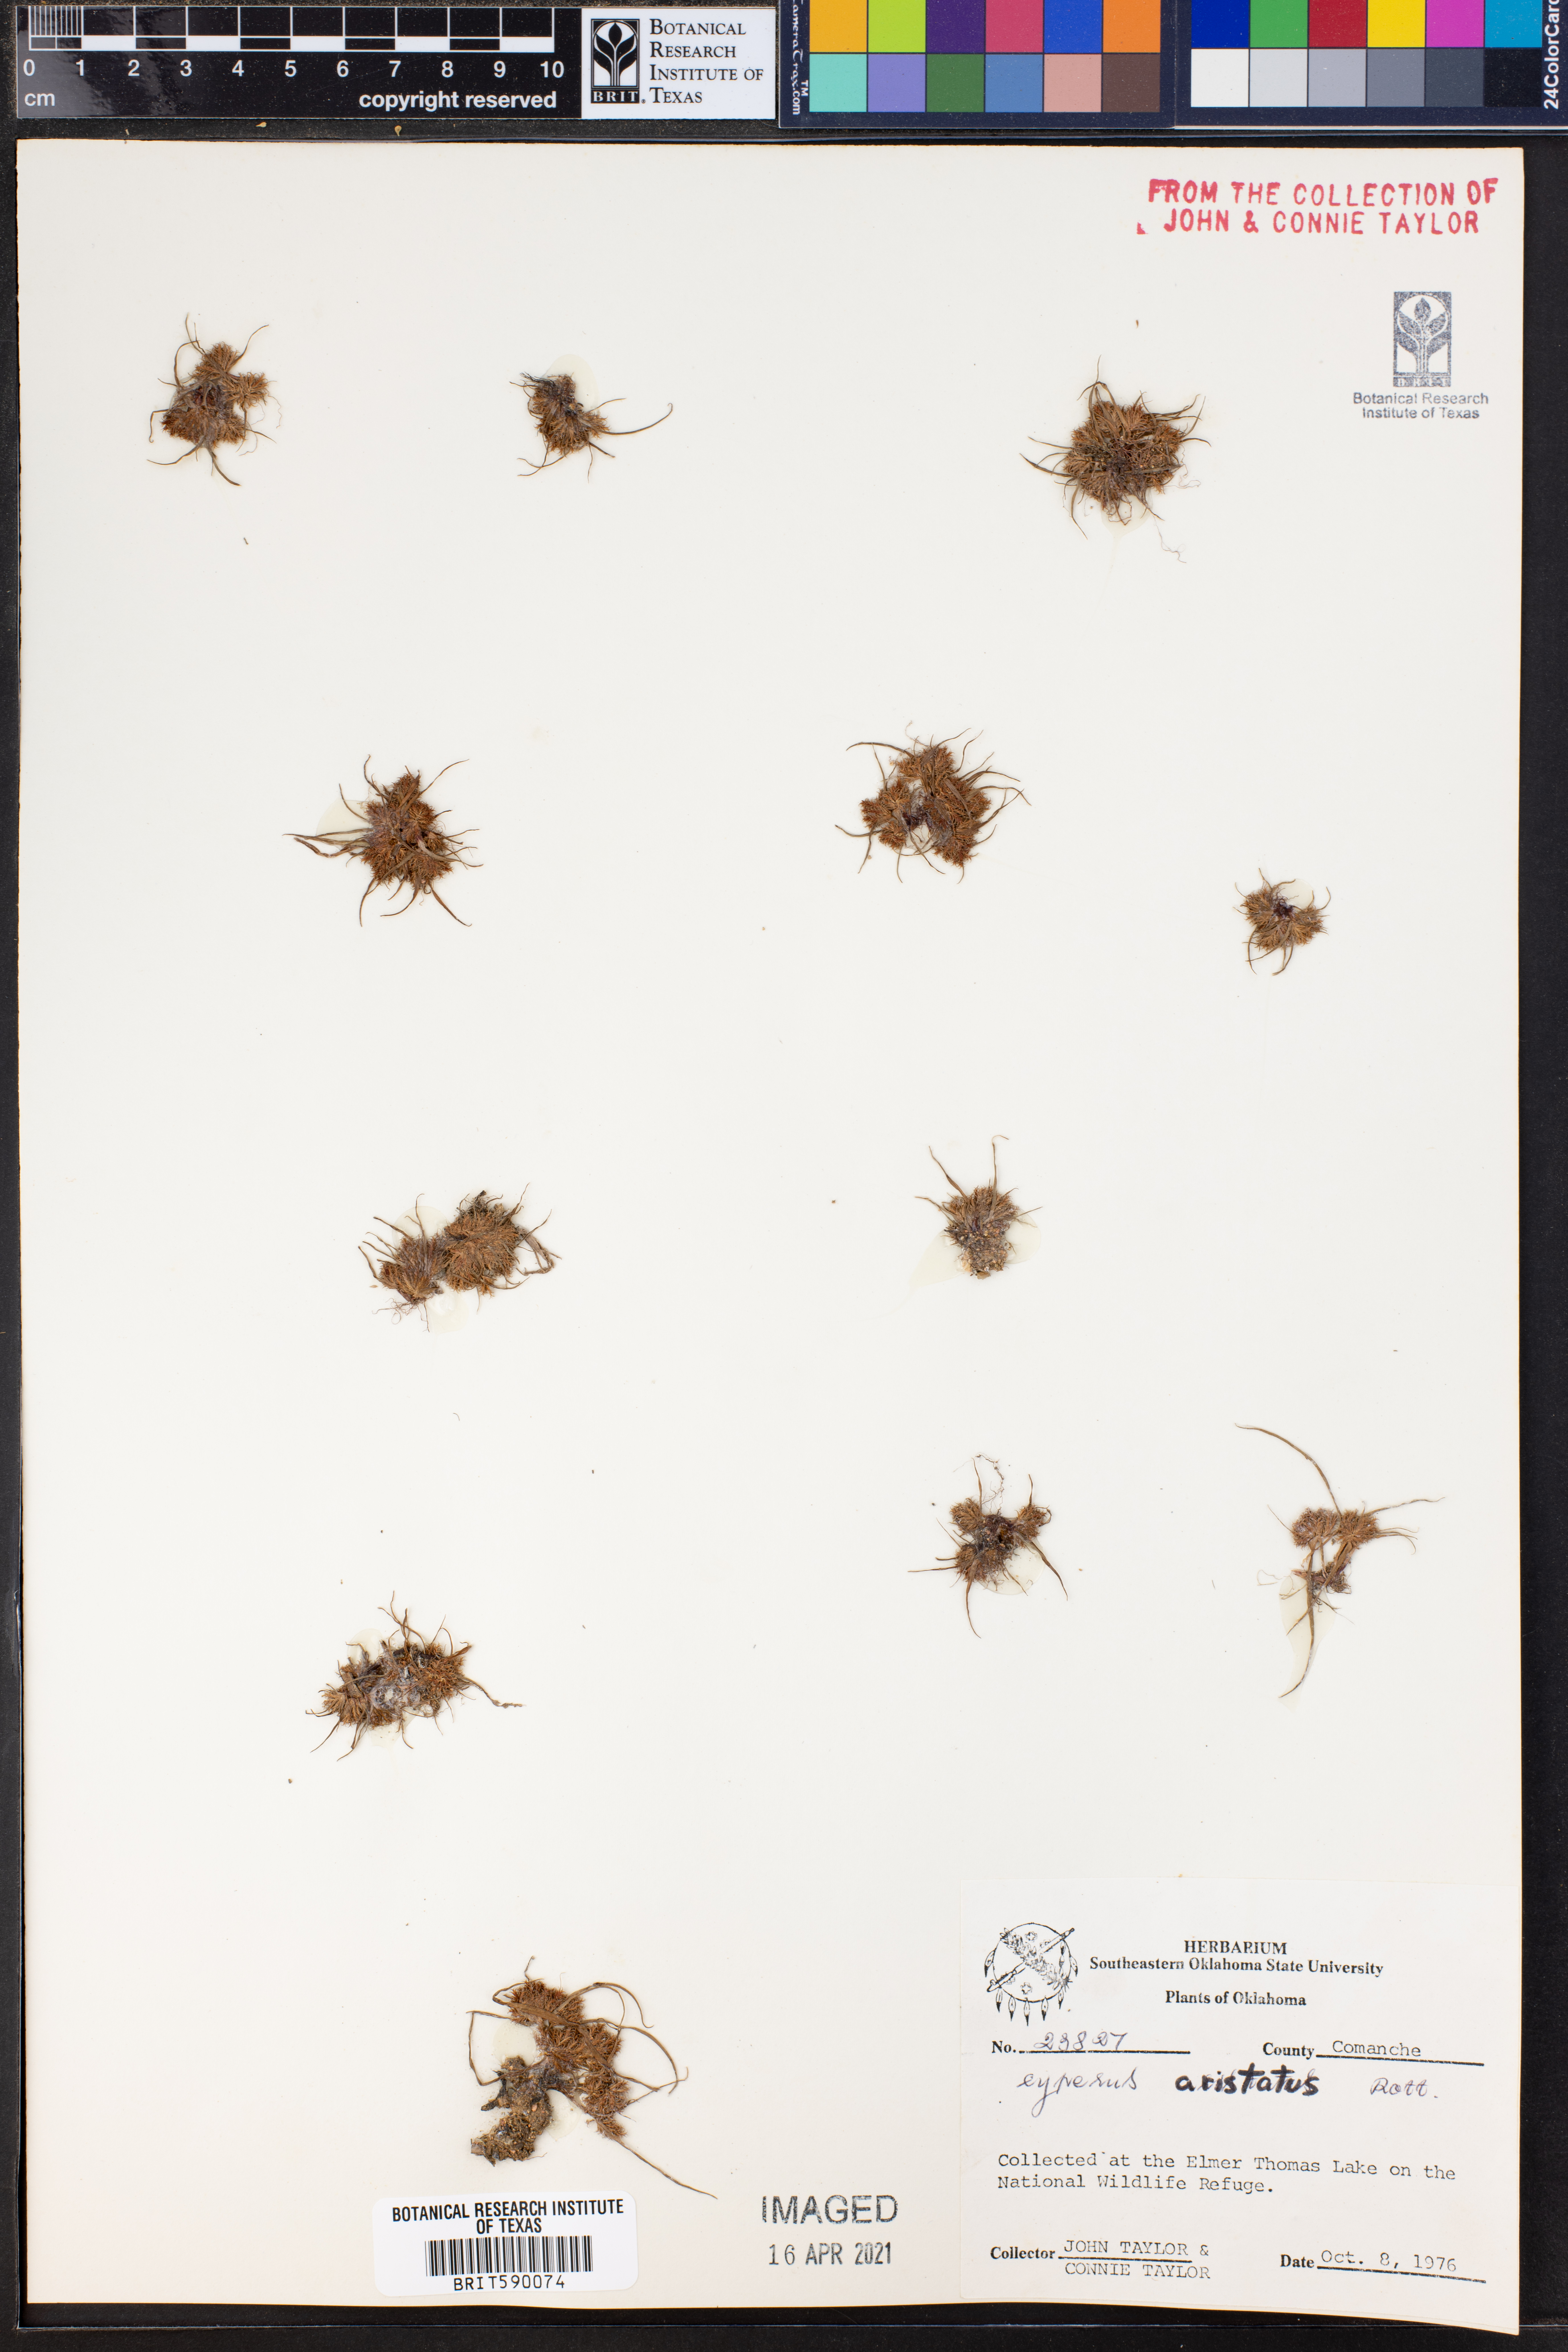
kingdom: Plantae
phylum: Tracheophyta
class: Liliopsida
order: Poales
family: Cyperaceae
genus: Cyperus
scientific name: Cyperus squarrosus
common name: Awned cyperus
